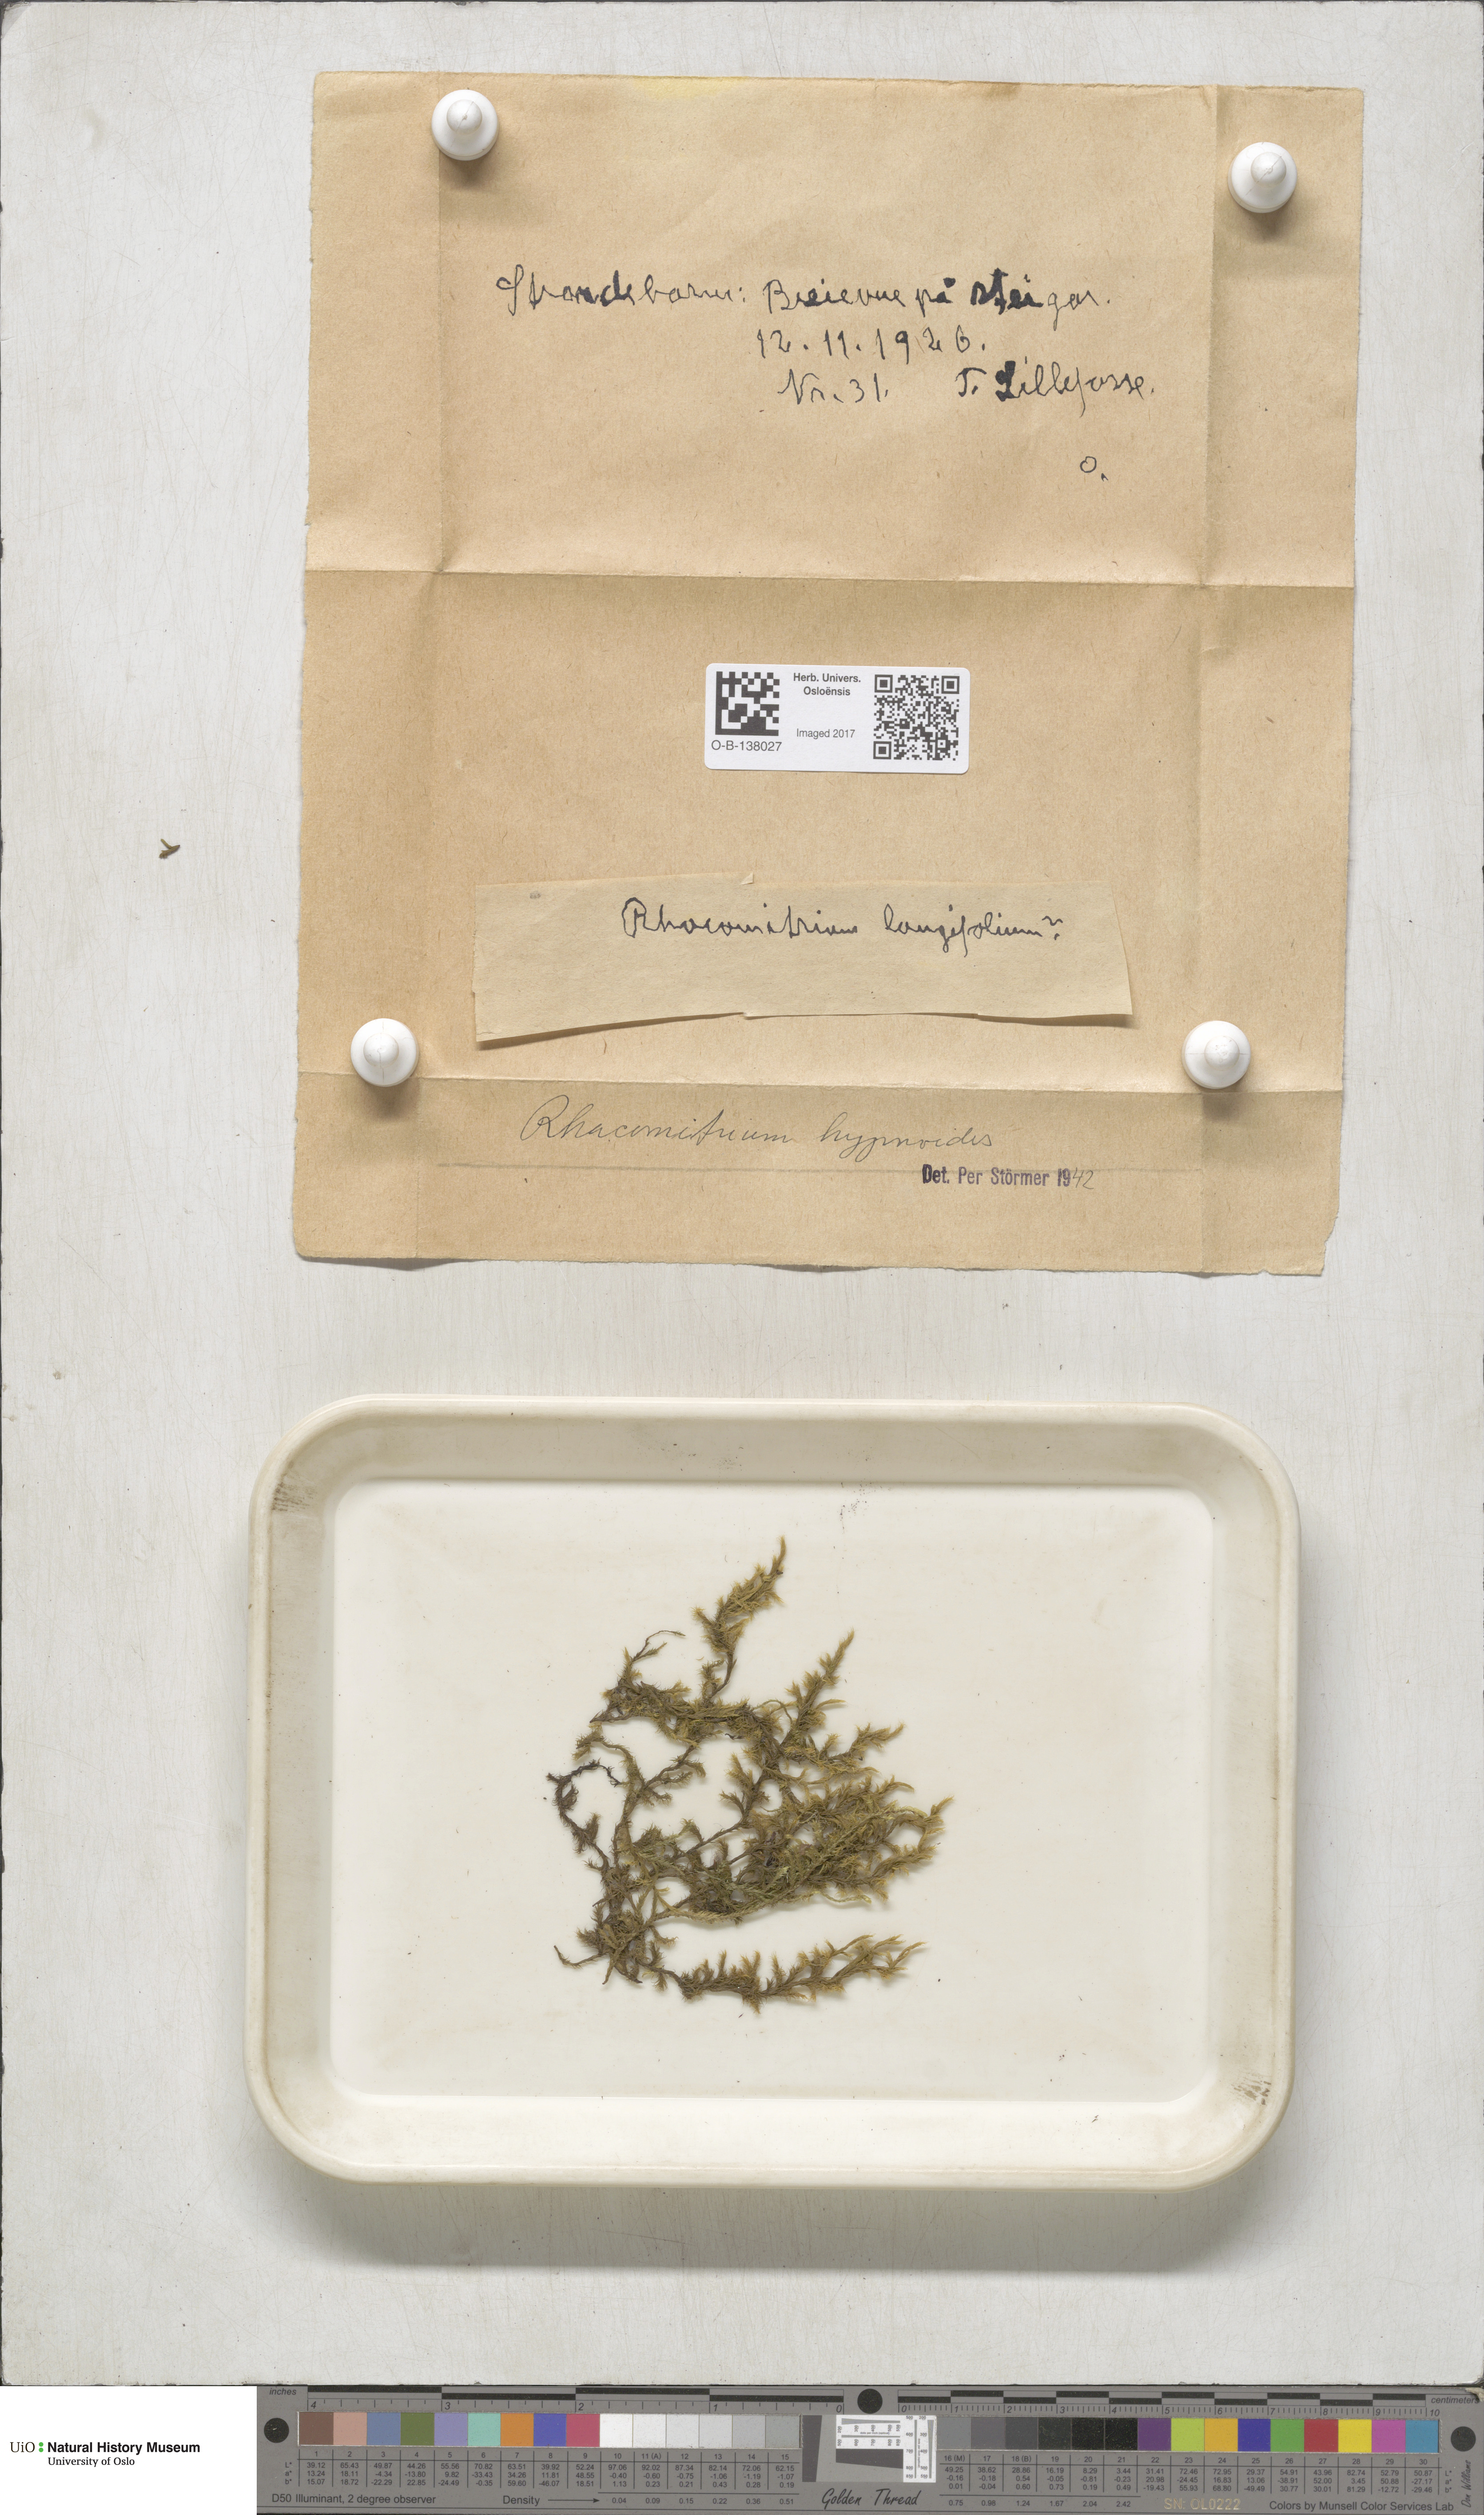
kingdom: Plantae
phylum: Bryophyta
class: Bryopsida
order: Grimmiales
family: Grimmiaceae
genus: Racomitrium
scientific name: Racomitrium lanuginosum
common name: Hoary rock moss
